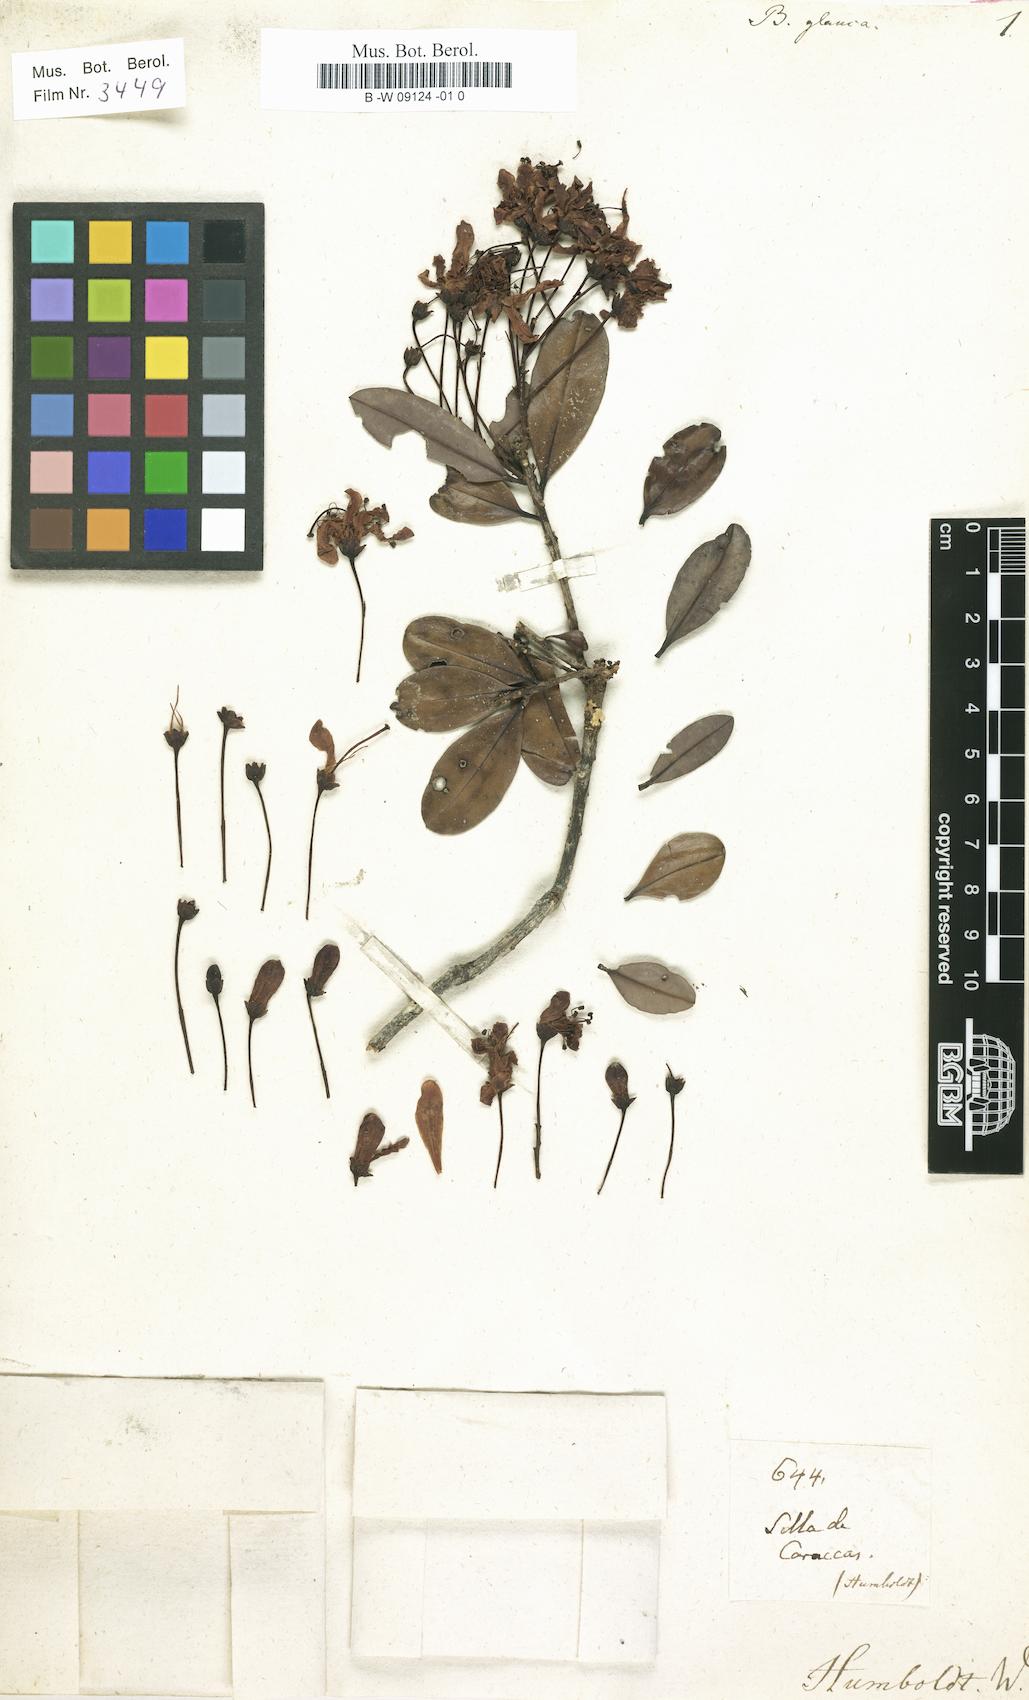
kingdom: Plantae
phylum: Tracheophyta
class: Magnoliopsida
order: Ericales
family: Ericaceae
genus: Bejaria
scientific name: Bejaria aestuans
